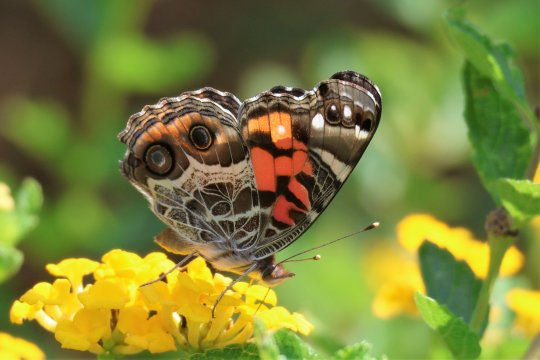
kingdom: Animalia
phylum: Arthropoda
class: Insecta
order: Lepidoptera
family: Nymphalidae
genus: Vanessa
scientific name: Vanessa virginiensis
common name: American Lady
